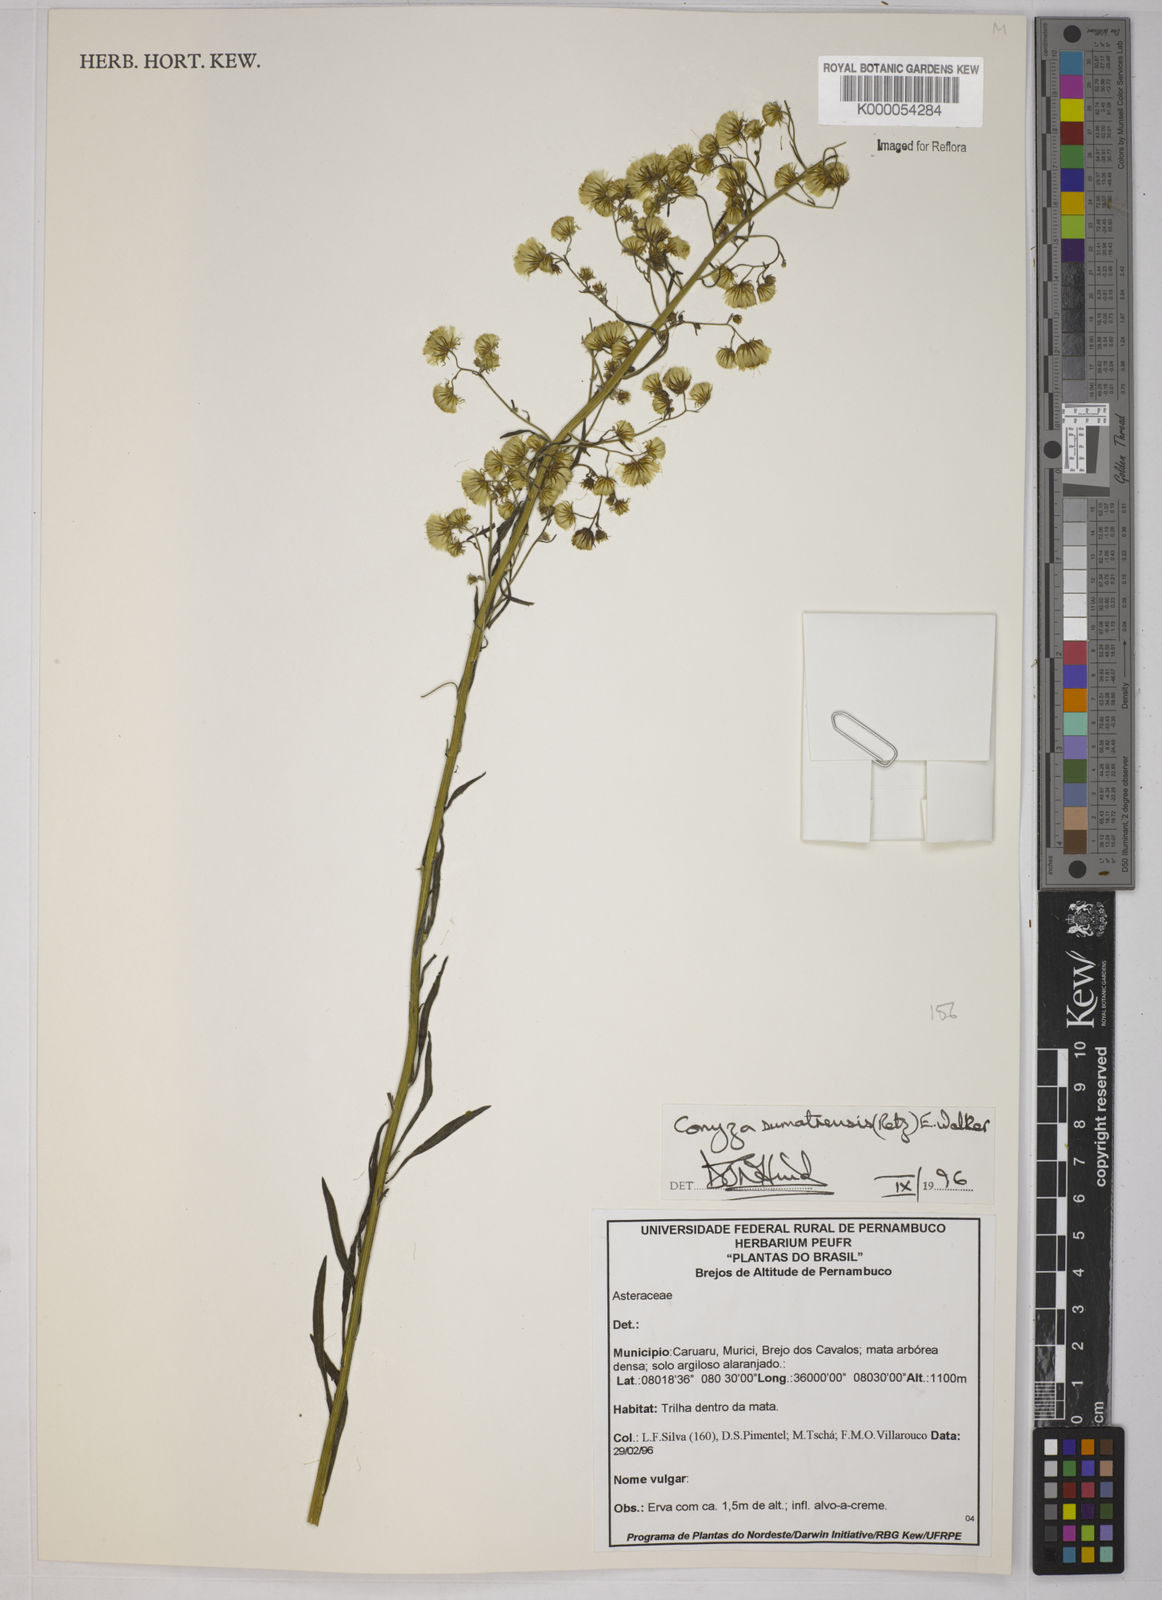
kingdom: Plantae
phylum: Tracheophyta
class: Magnoliopsida
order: Asterales
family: Asteraceae
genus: Erigeron
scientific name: Erigeron sumatrensis
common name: Daisy
